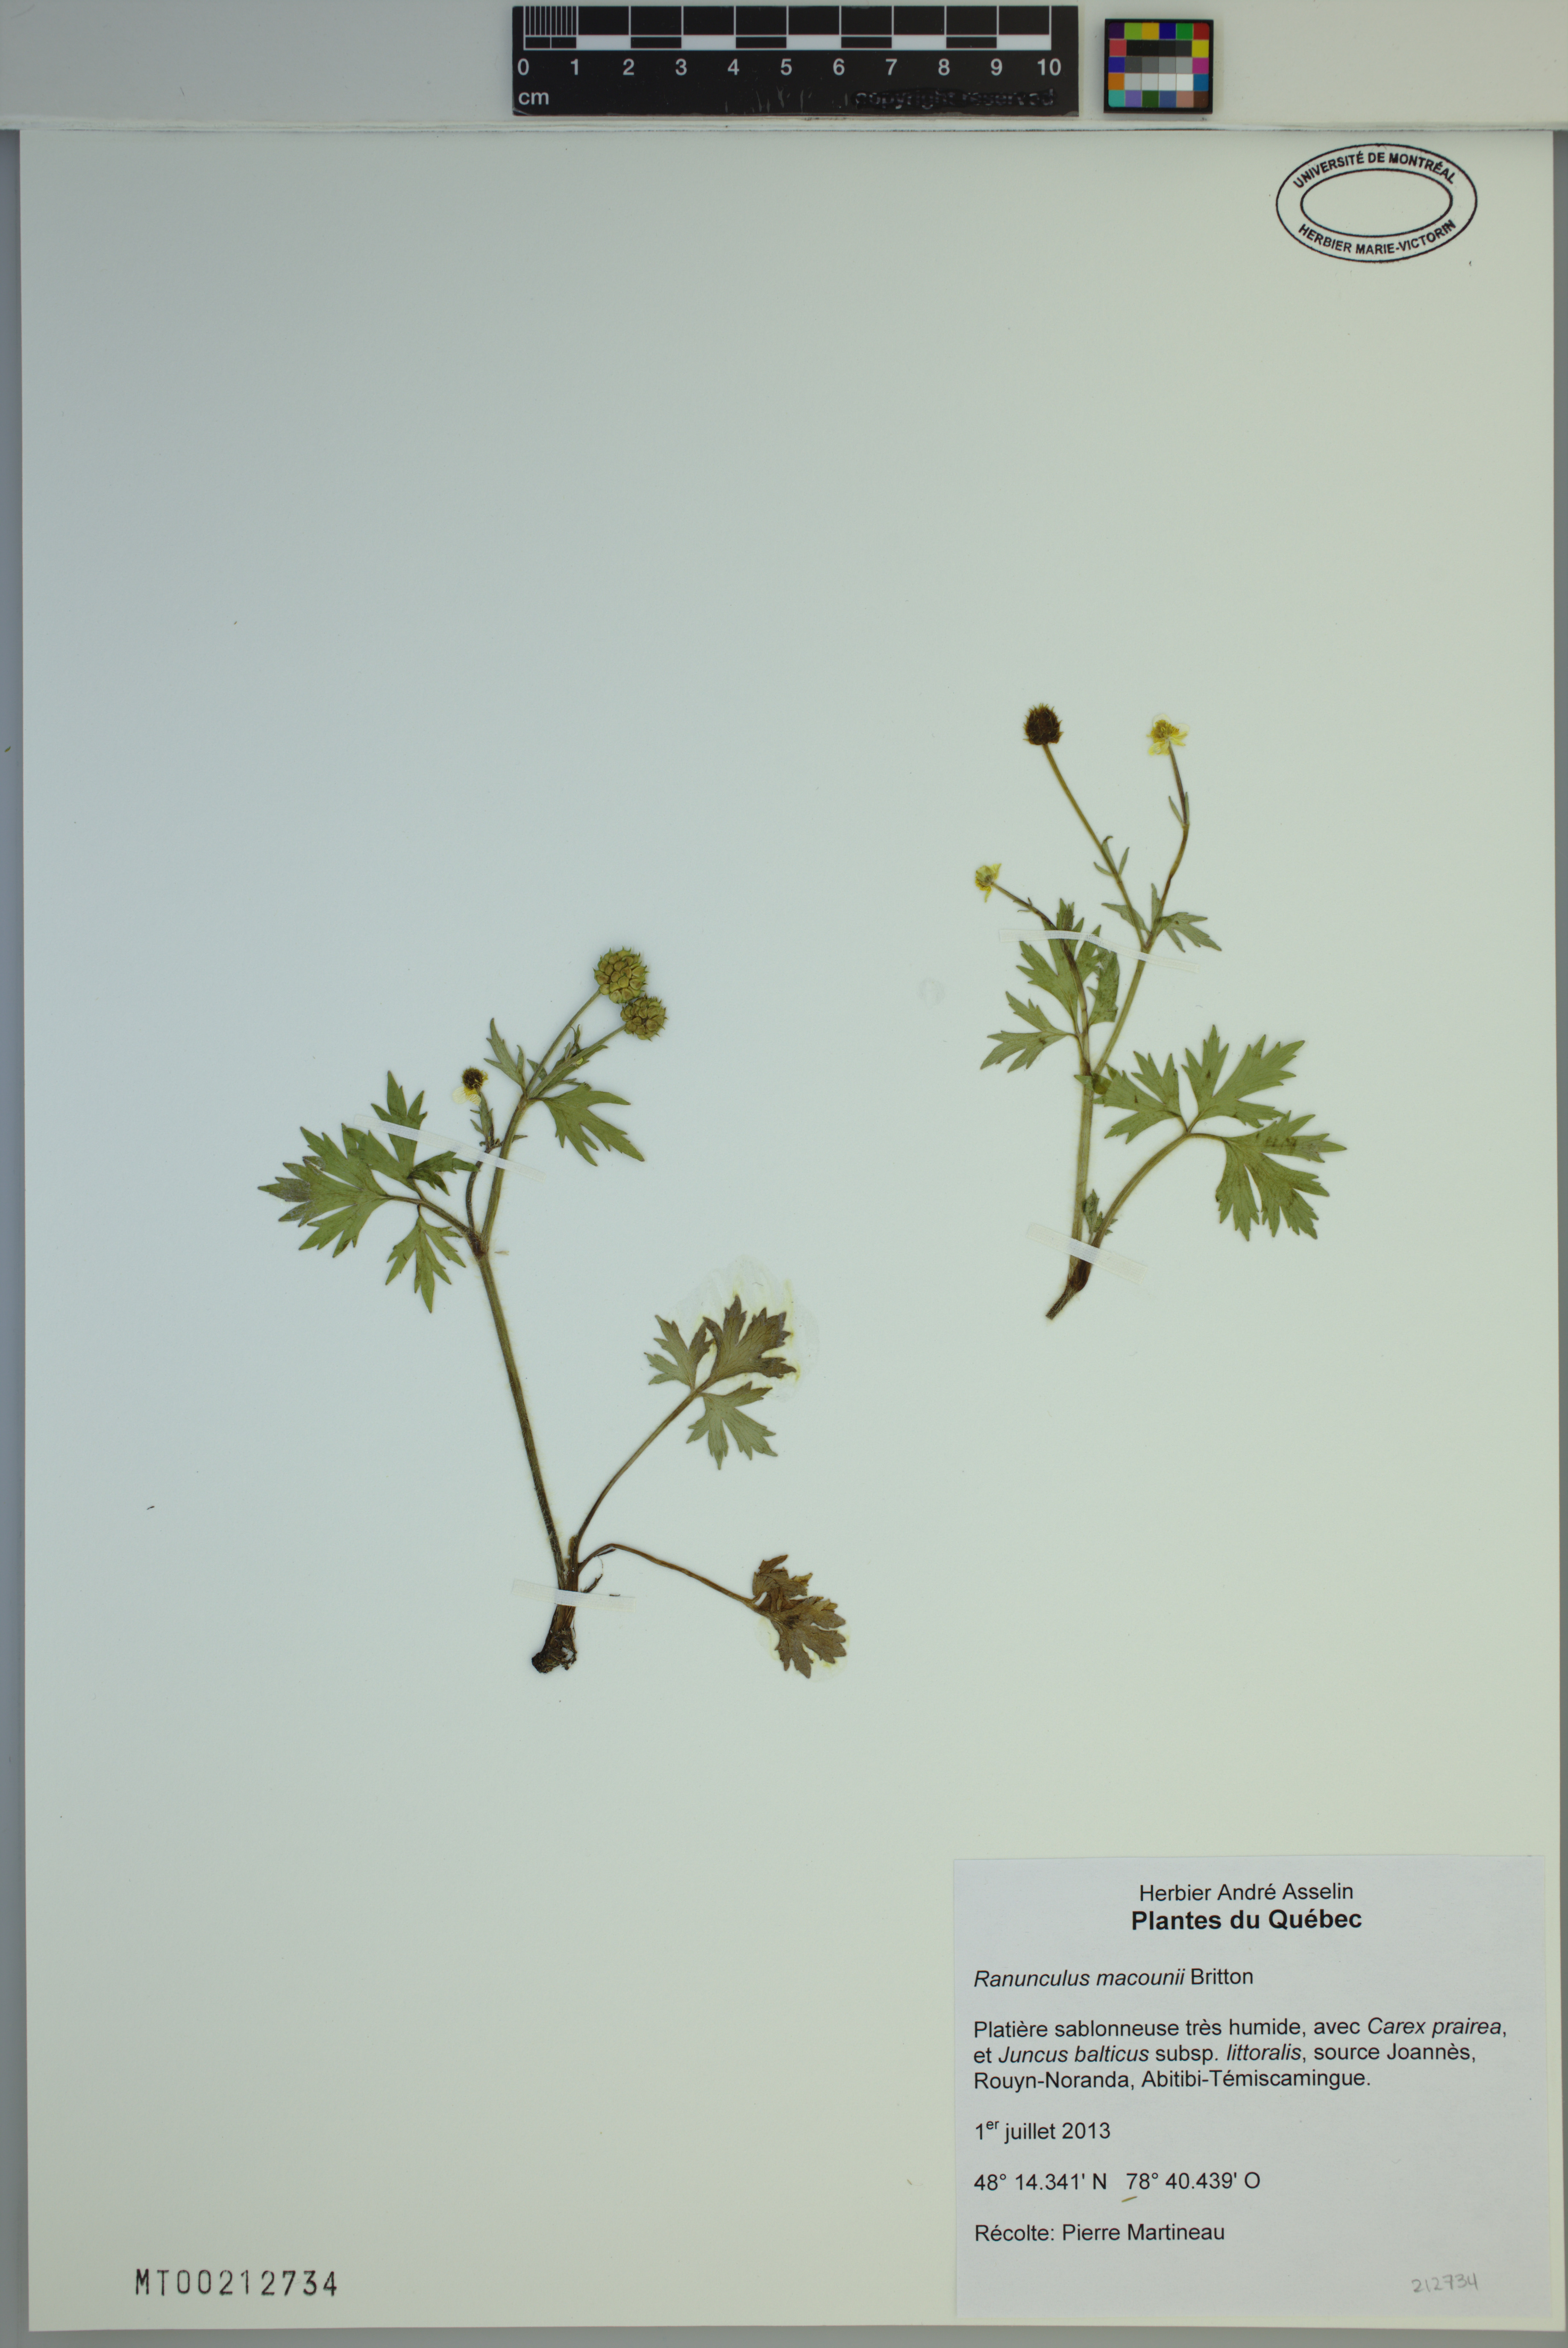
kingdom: Plantae
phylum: Tracheophyta
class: Magnoliopsida
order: Ranunculales
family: Ranunculaceae
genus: Ranunculus
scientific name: Ranunculus macounii
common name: Macoun's buttercup
